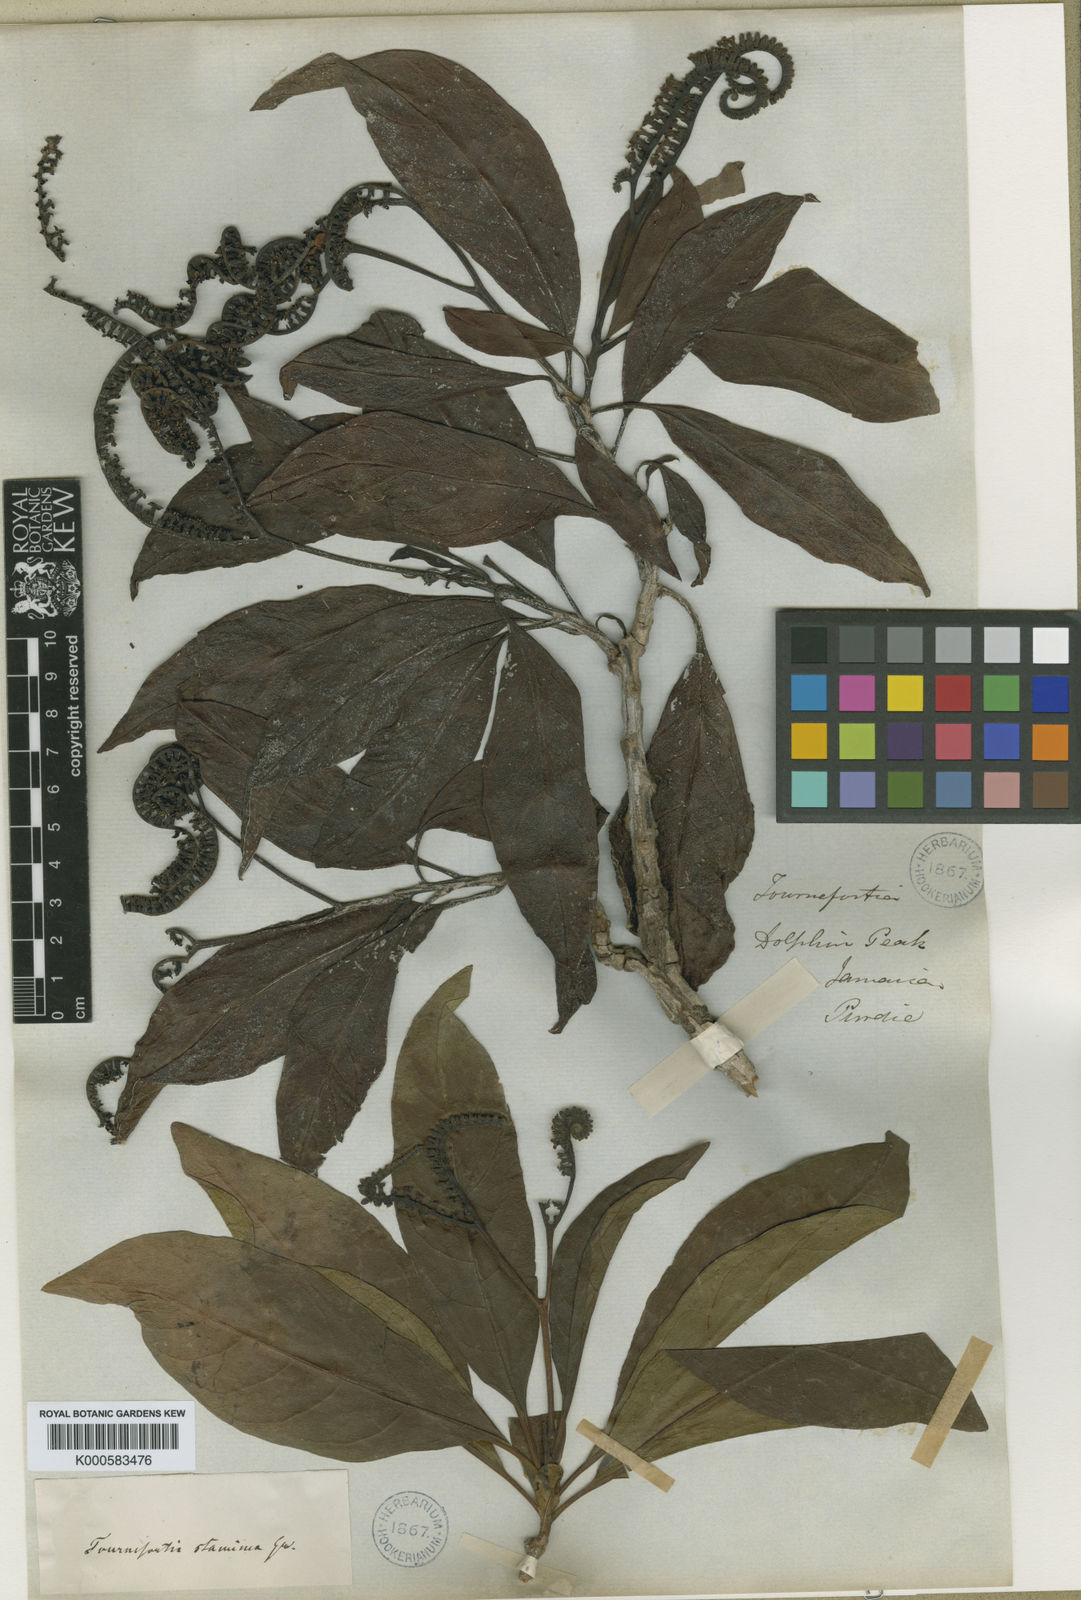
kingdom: Plantae
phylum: Tracheophyta
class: Magnoliopsida
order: Boraginales
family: Heliotropiaceae
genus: Heliotropium
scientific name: Heliotropium stamineum
